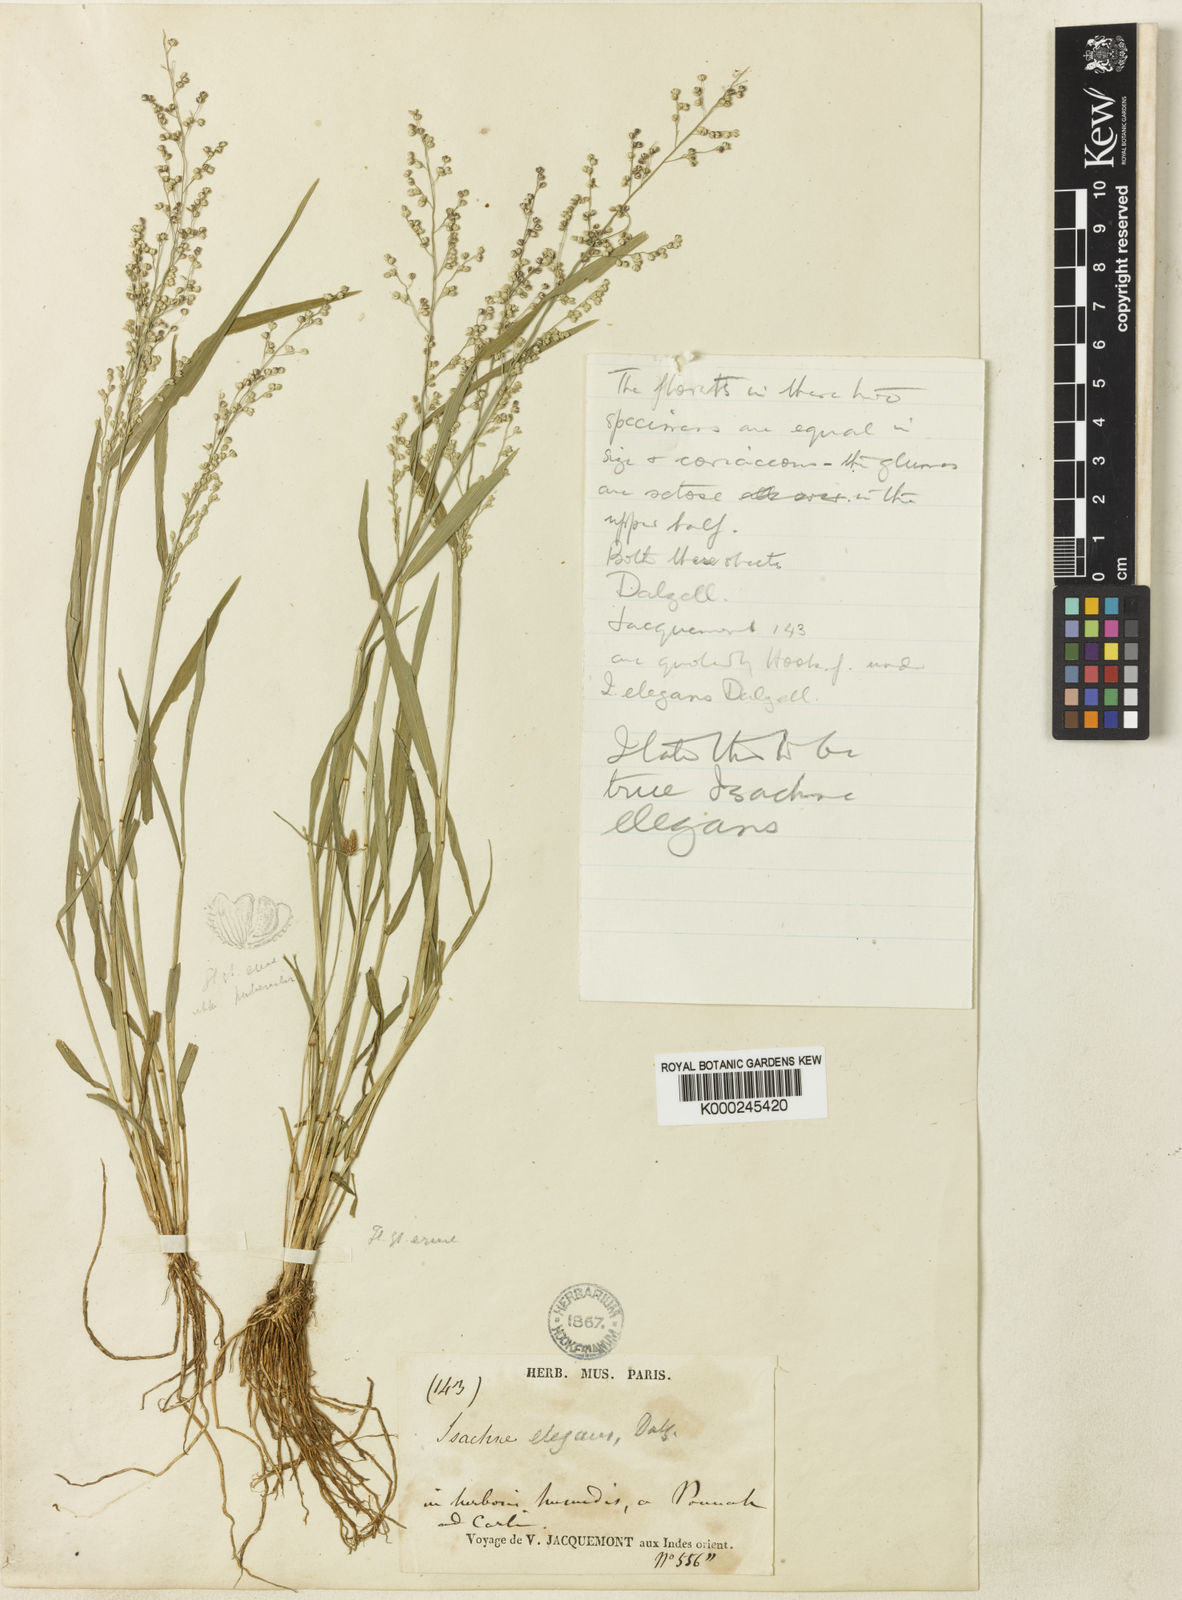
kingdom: Plantae
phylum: Tracheophyta
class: Liliopsida
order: Poales
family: Poaceae
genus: Isachne
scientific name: Isachne elegans
